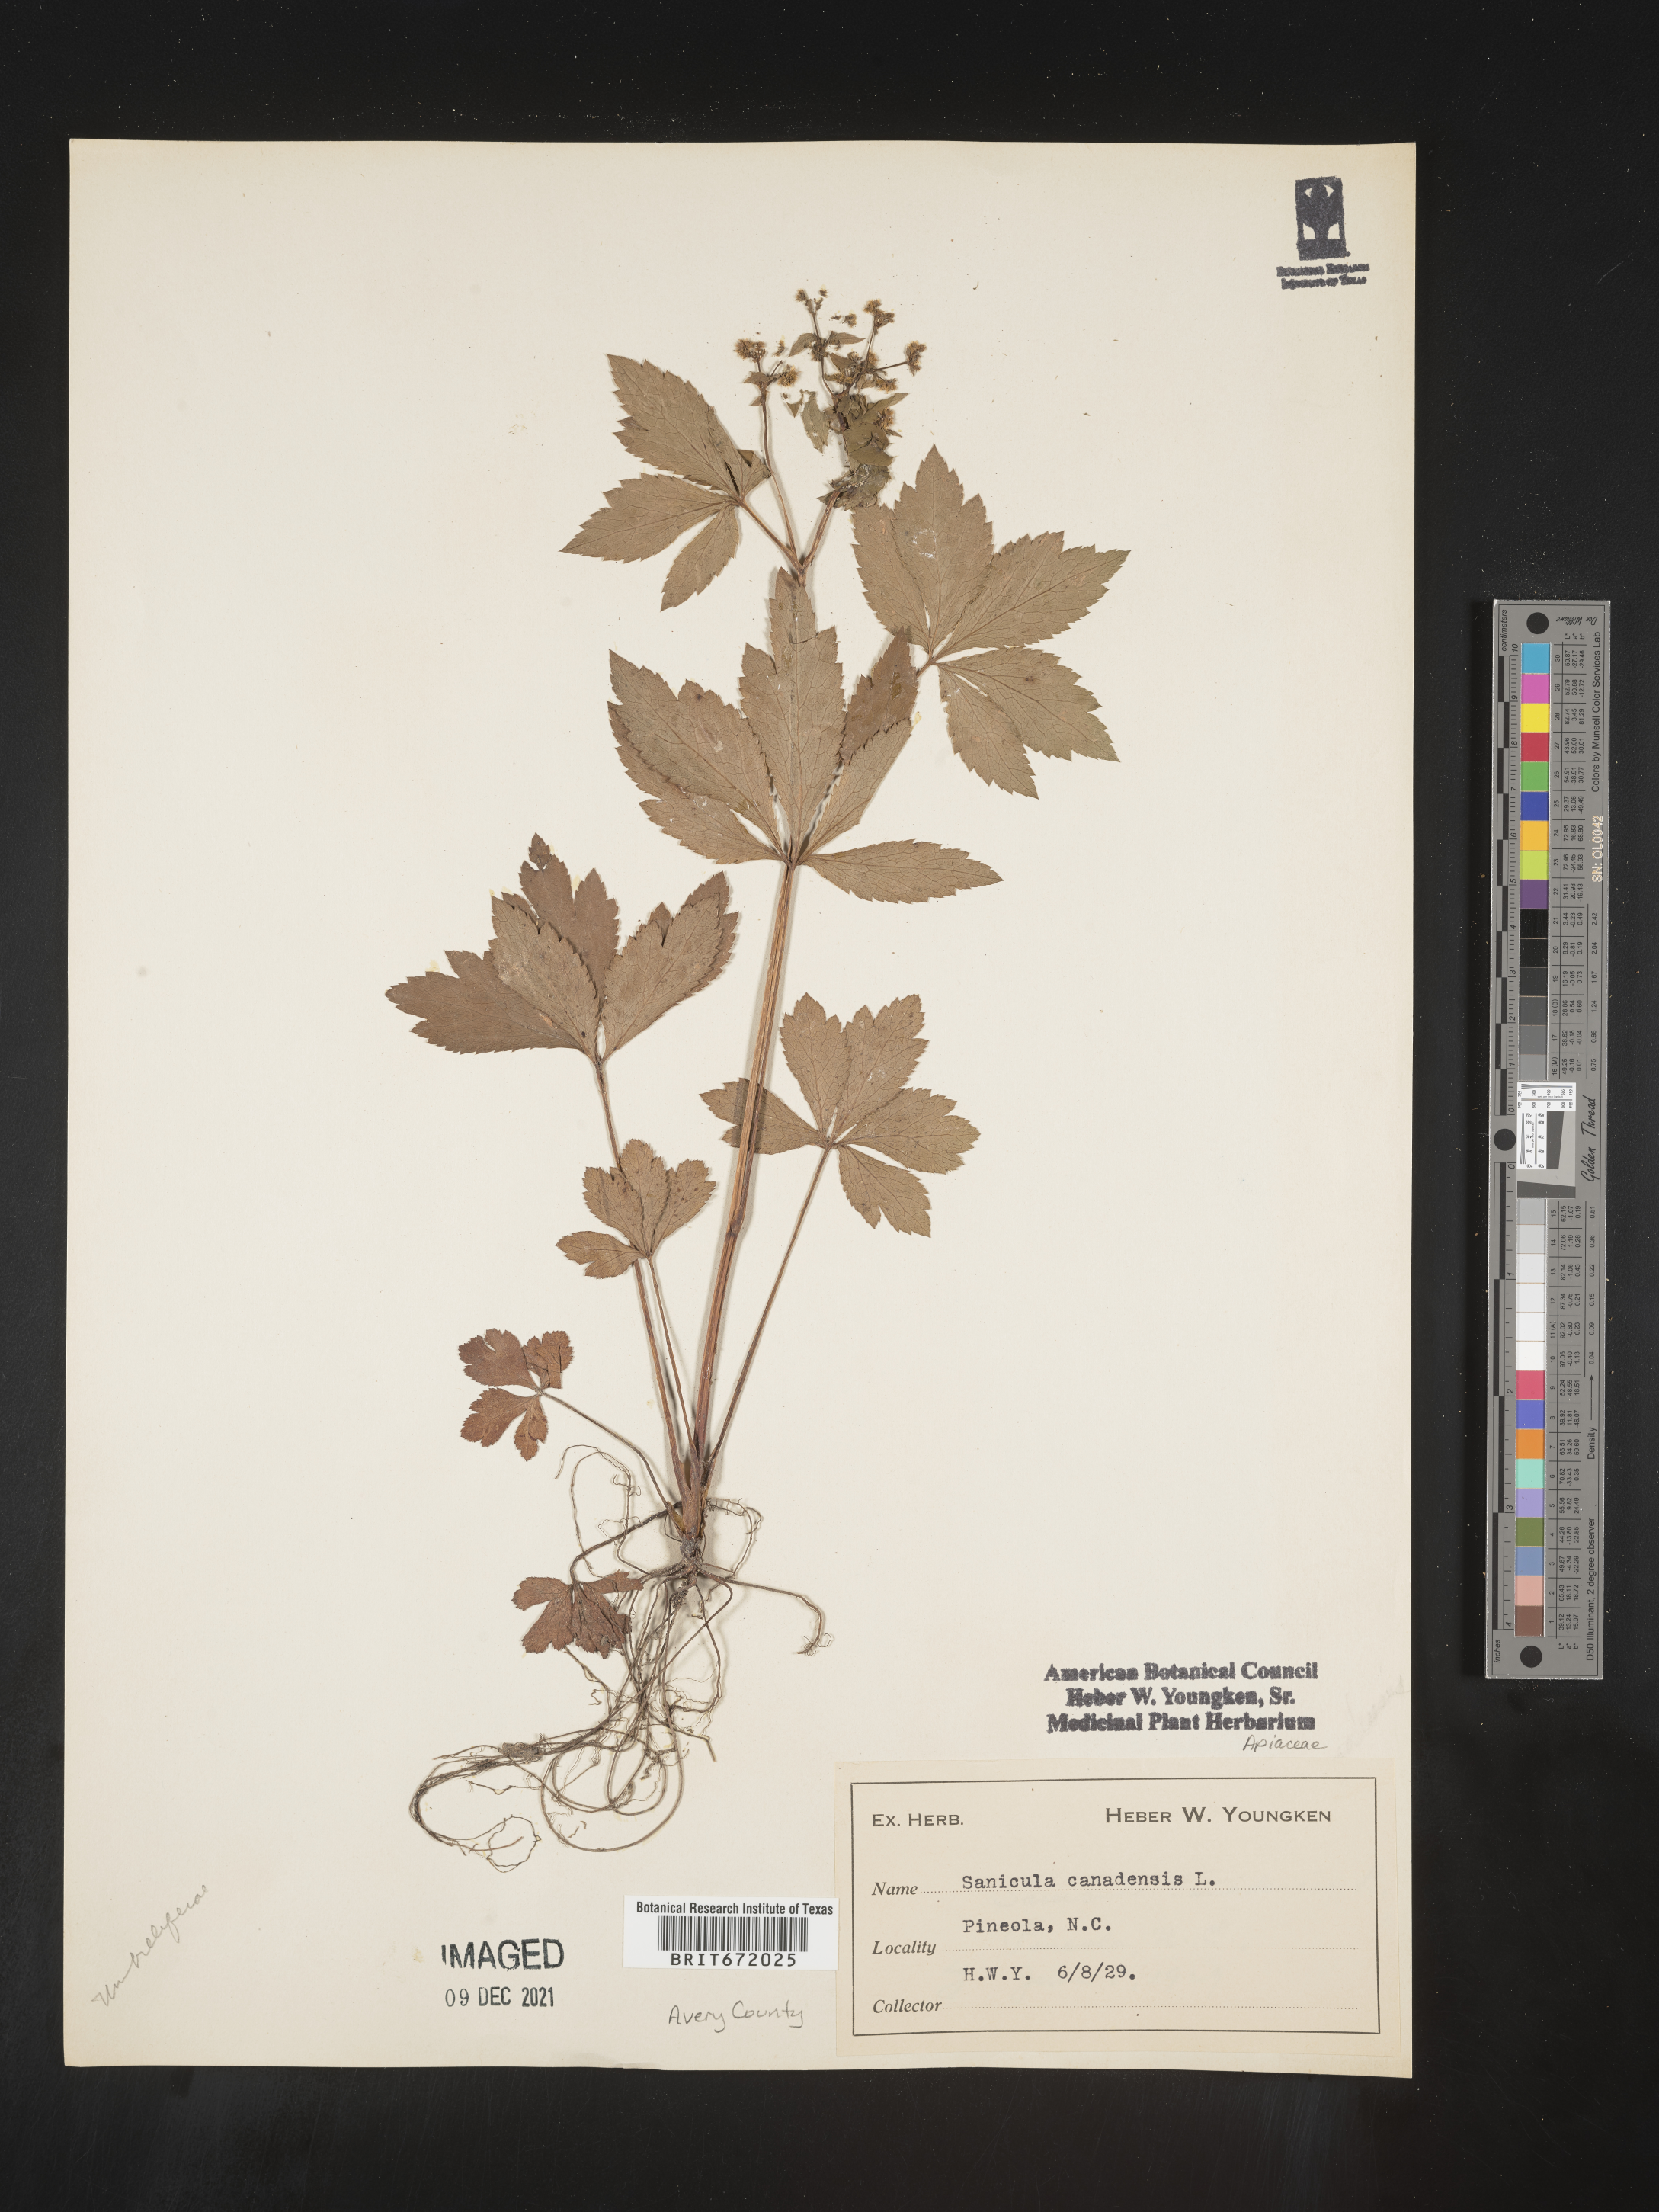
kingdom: Plantae
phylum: Tracheophyta
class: Magnoliopsida
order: Apiales
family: Apiaceae
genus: Sanicula
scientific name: Sanicula canadensis
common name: Canada sanicle
